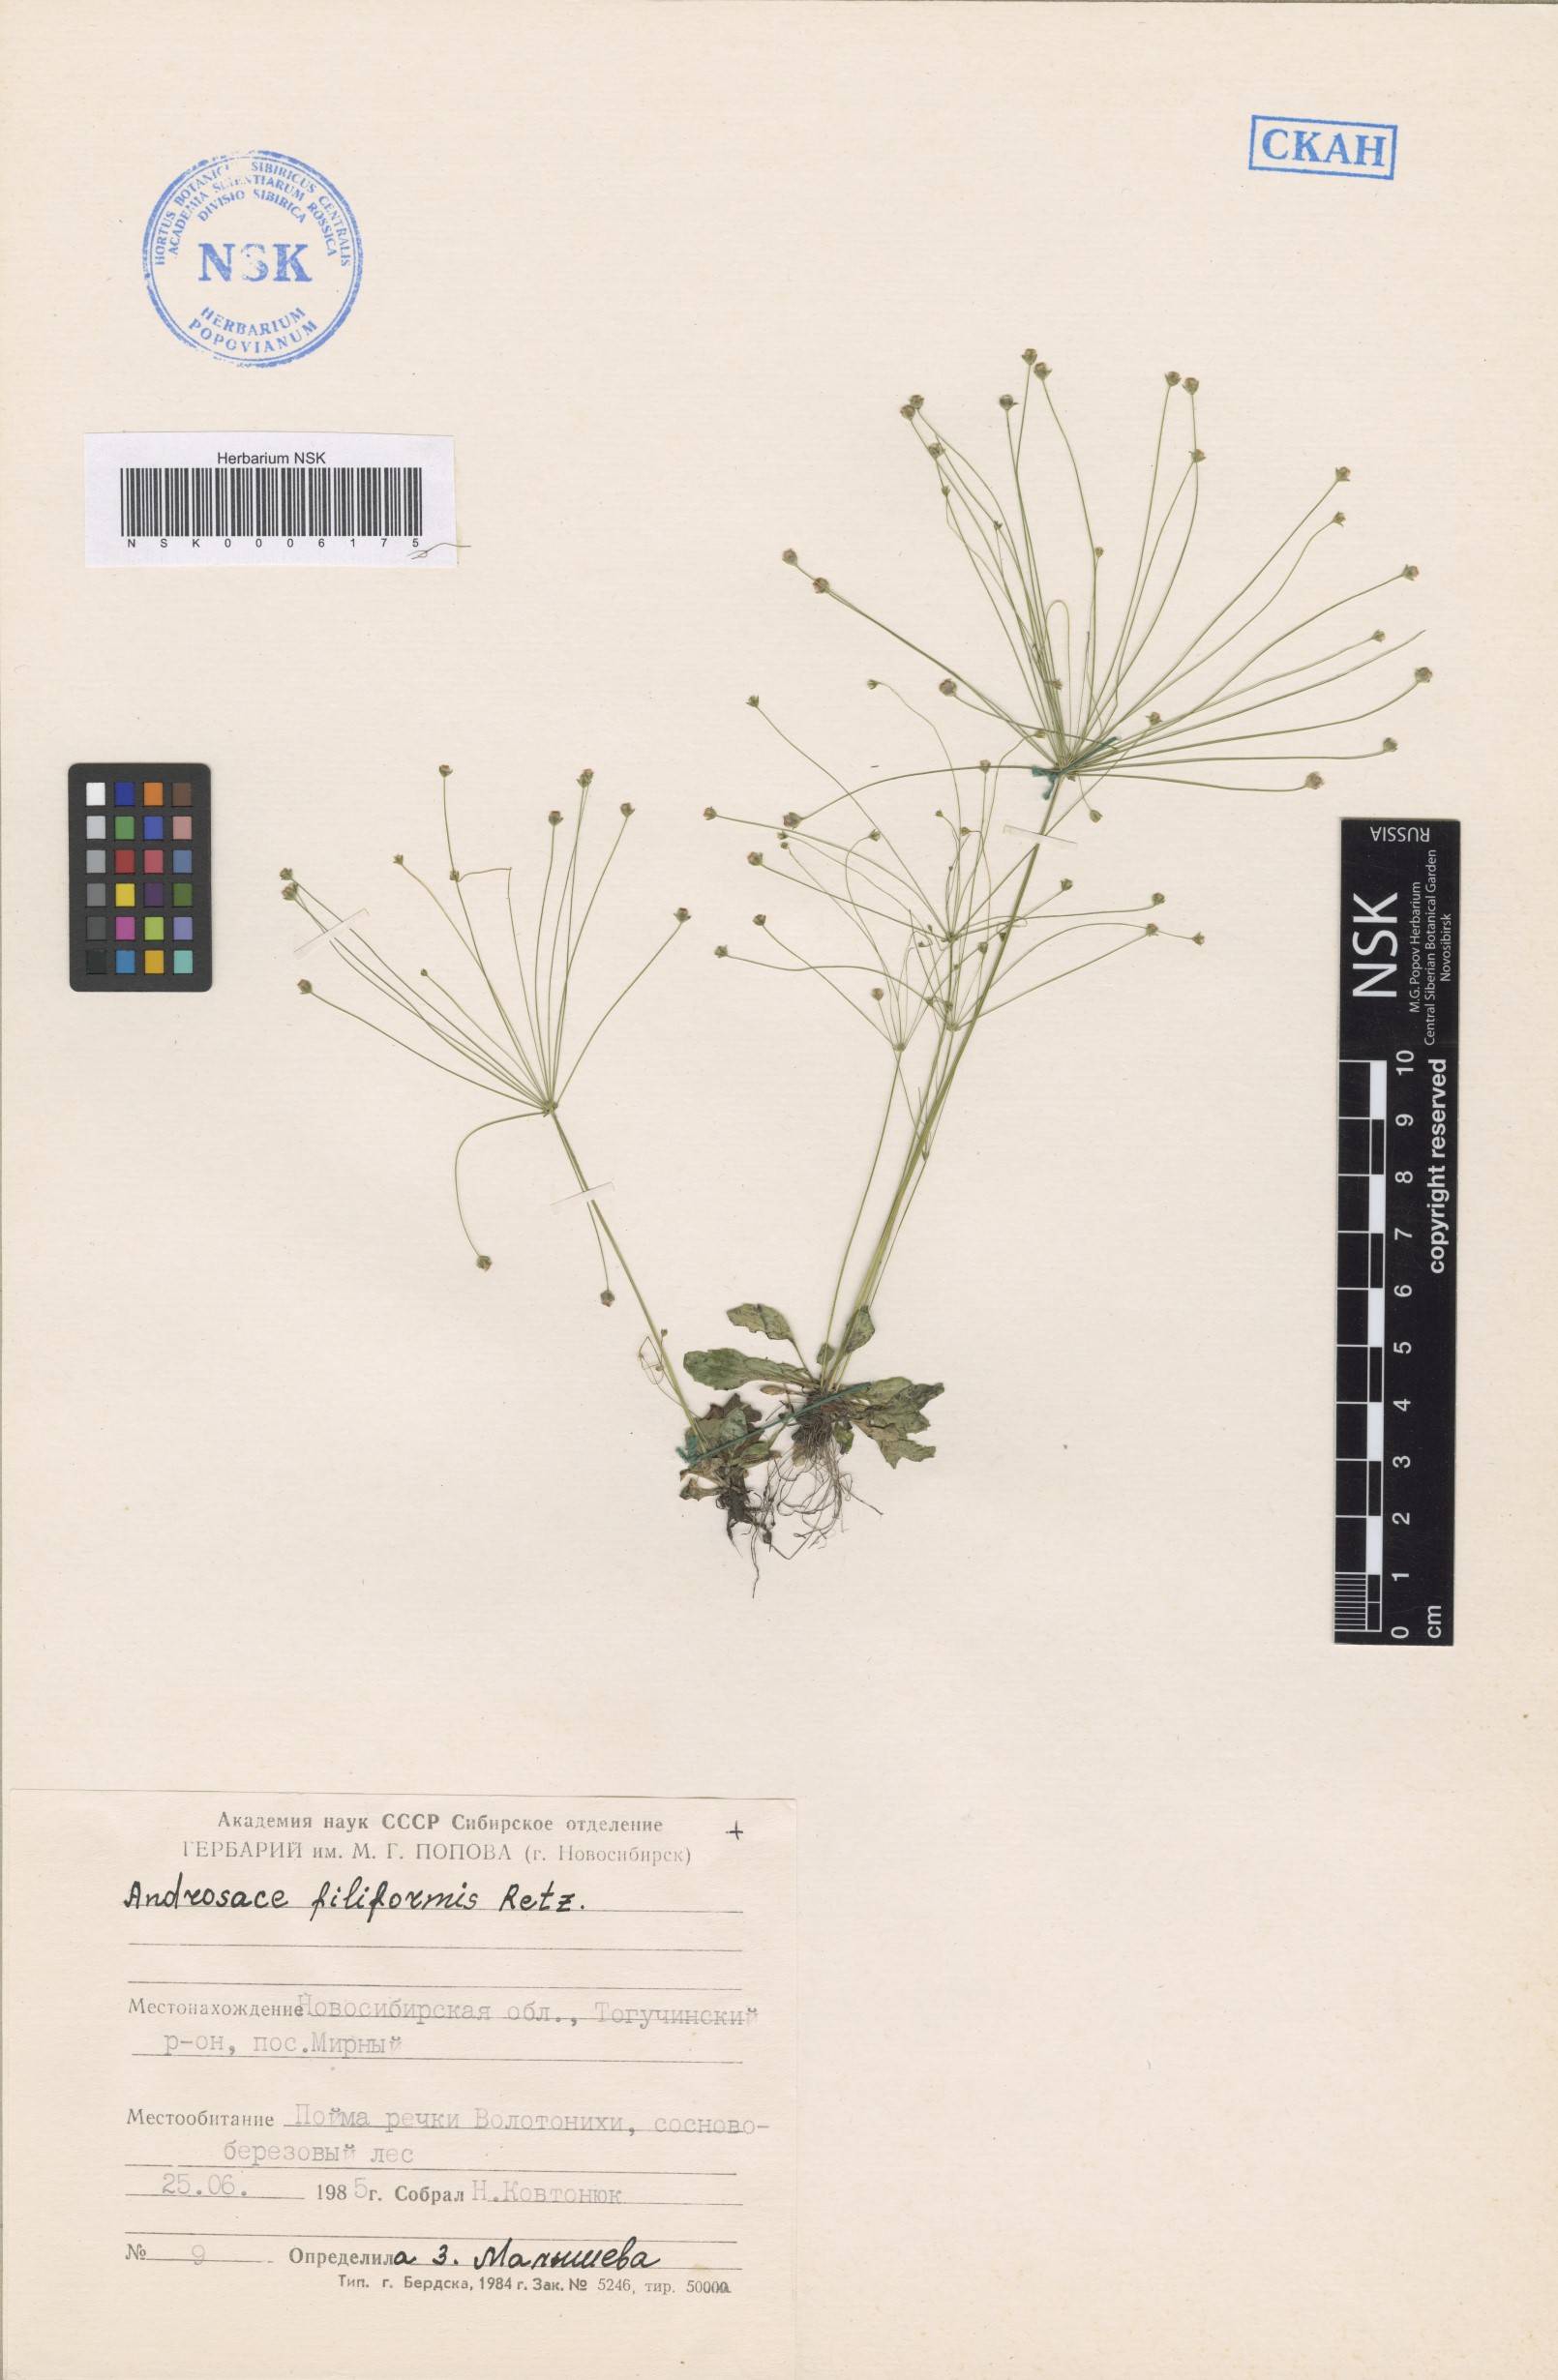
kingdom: Plantae
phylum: Tracheophyta
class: Magnoliopsida
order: Ericales
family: Primulaceae
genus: Androsace
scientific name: Androsace filiformis
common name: Filiform rock jasmine
